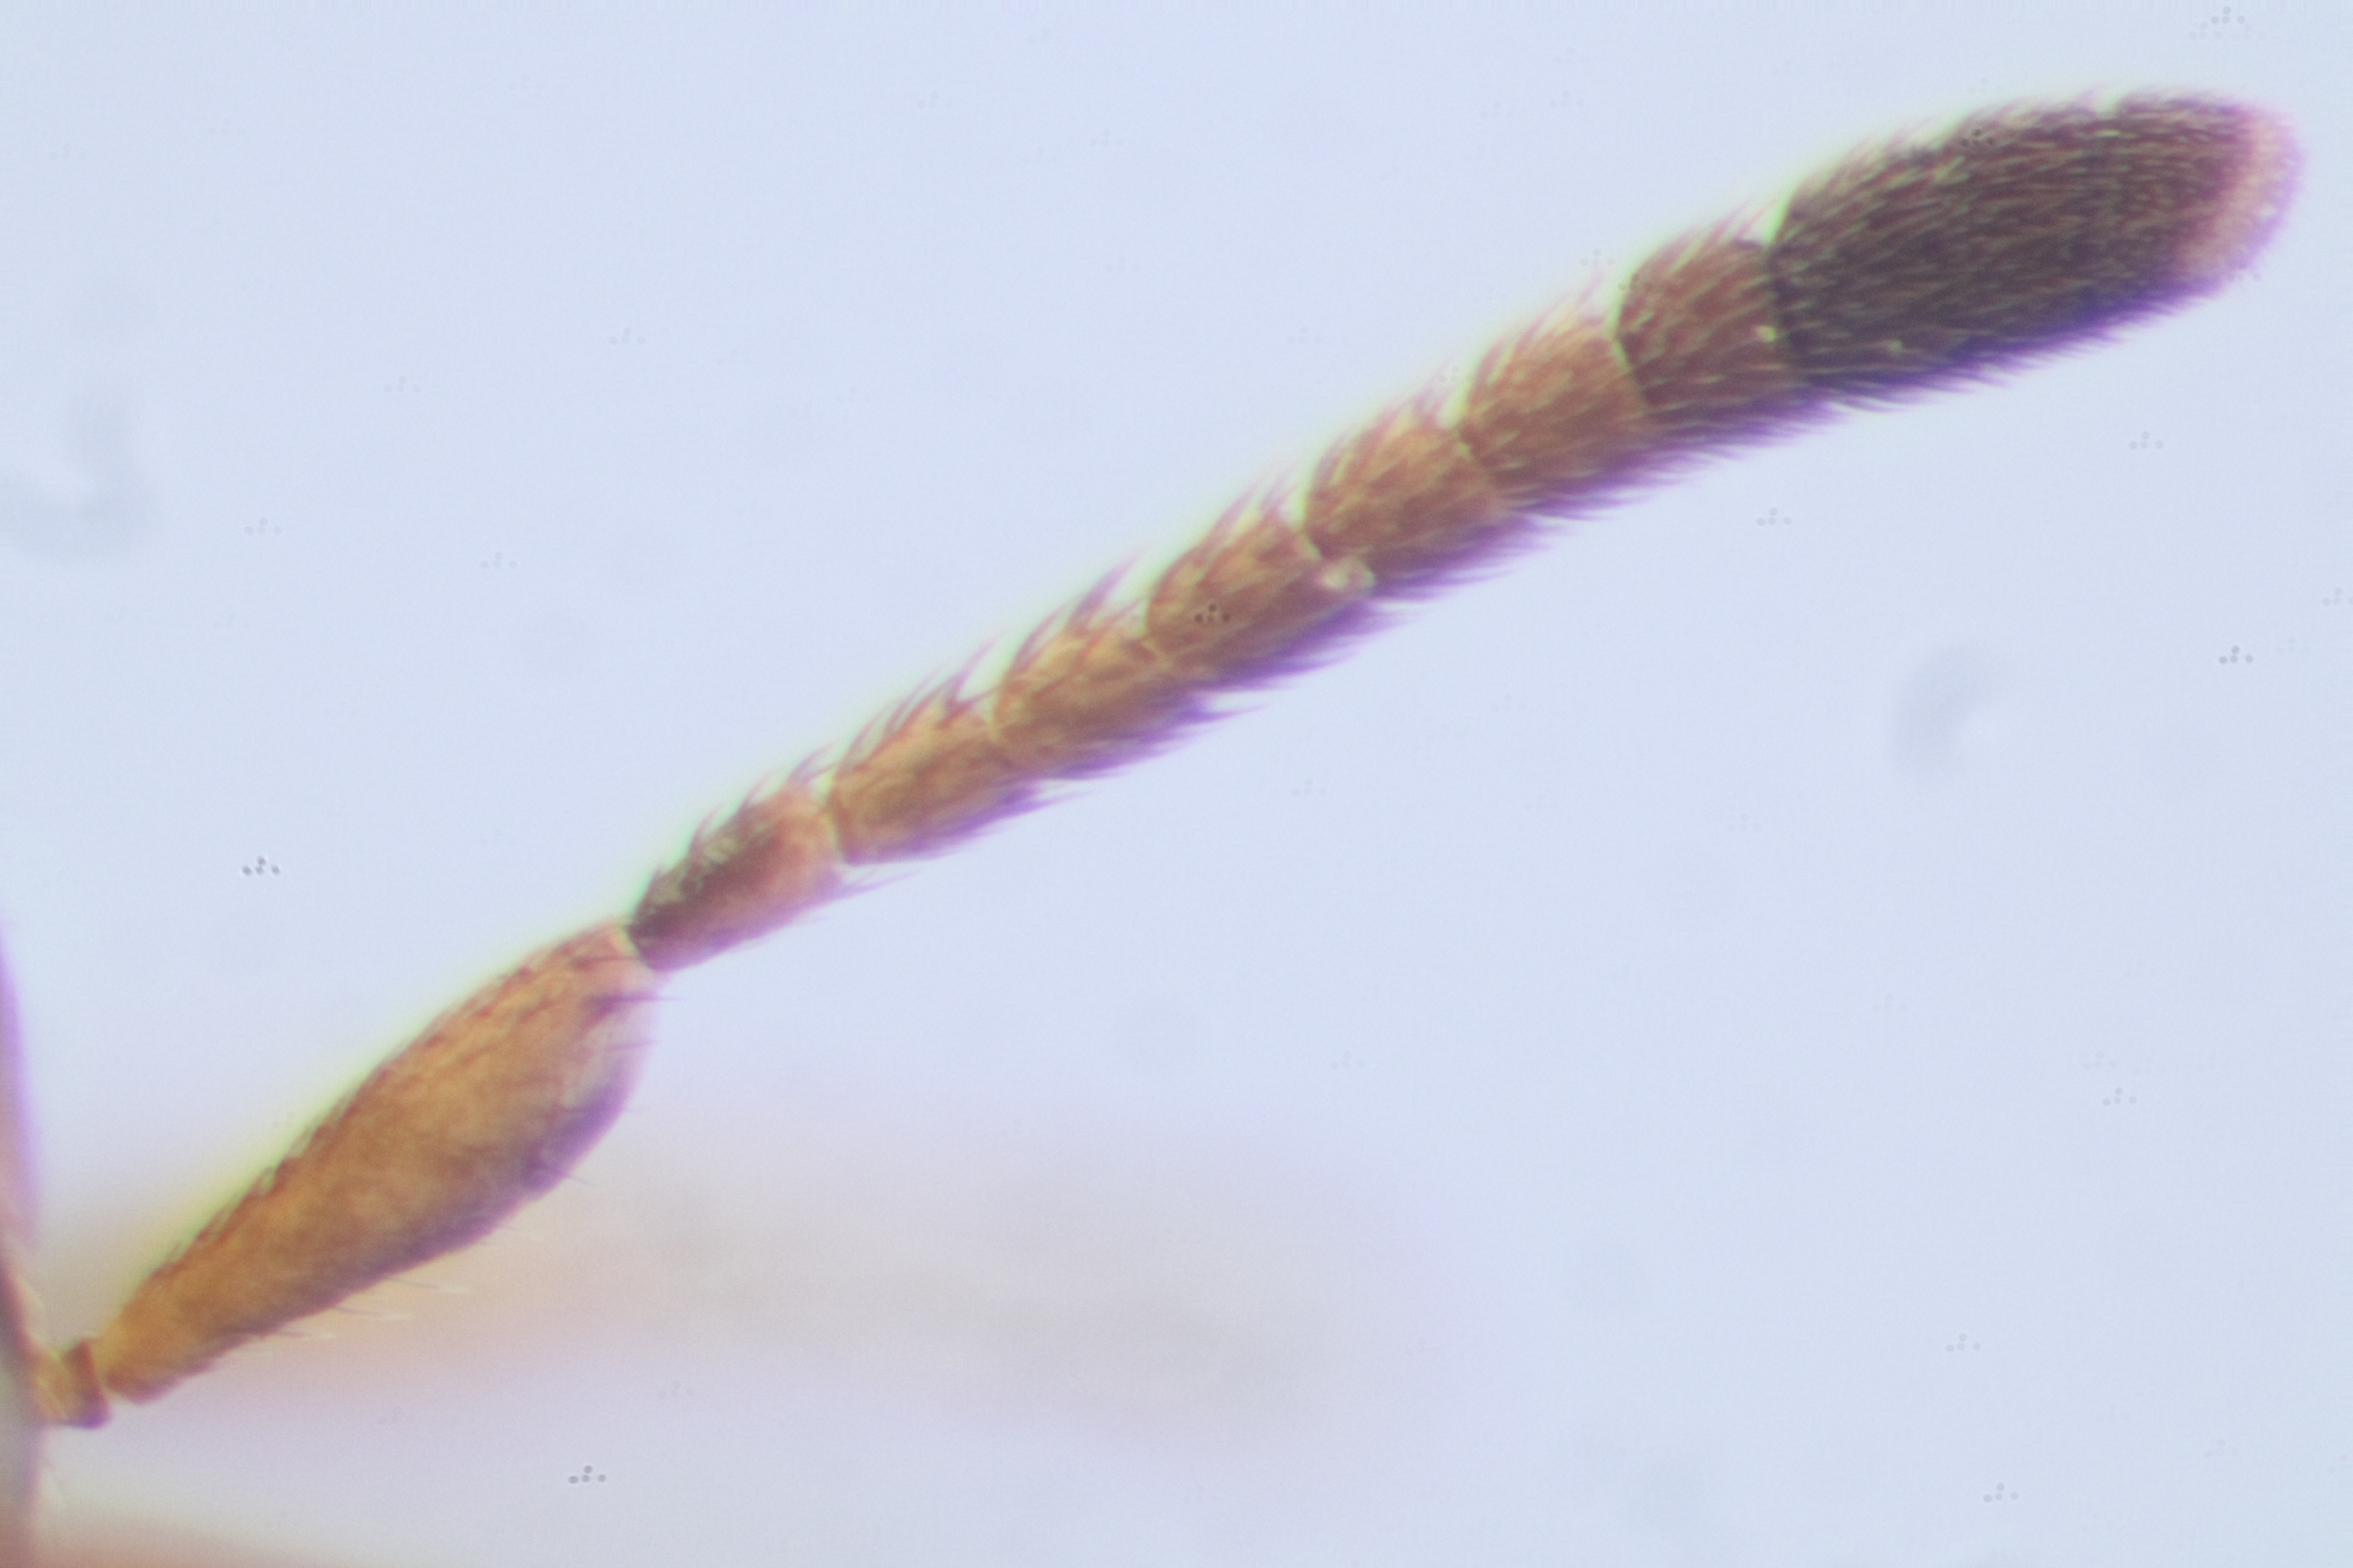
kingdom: Animalia
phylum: Arthropoda
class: Insecta
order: Hymenoptera
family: Encyrtidae
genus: Microterys
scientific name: Microterys tessellatus
